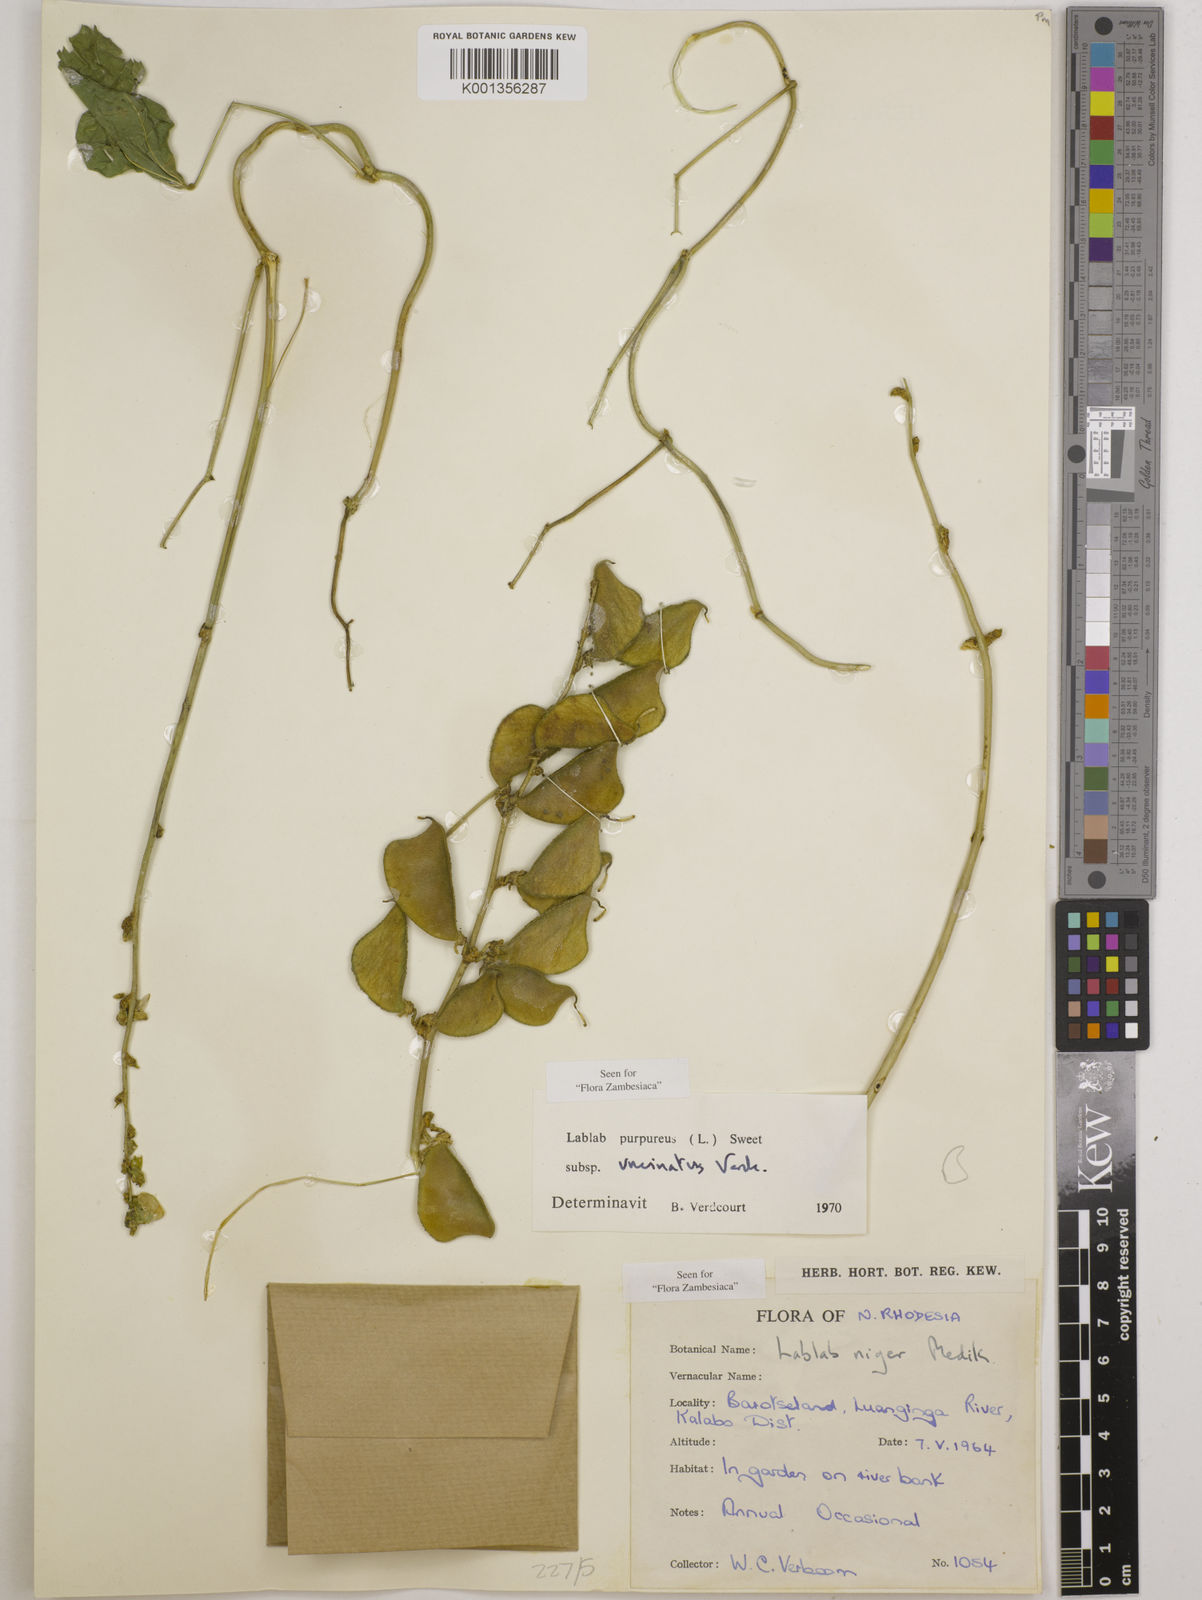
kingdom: Plantae
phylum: Tracheophyta
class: Magnoliopsida
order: Fabales
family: Fabaceae
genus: Lablab
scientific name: Lablab
